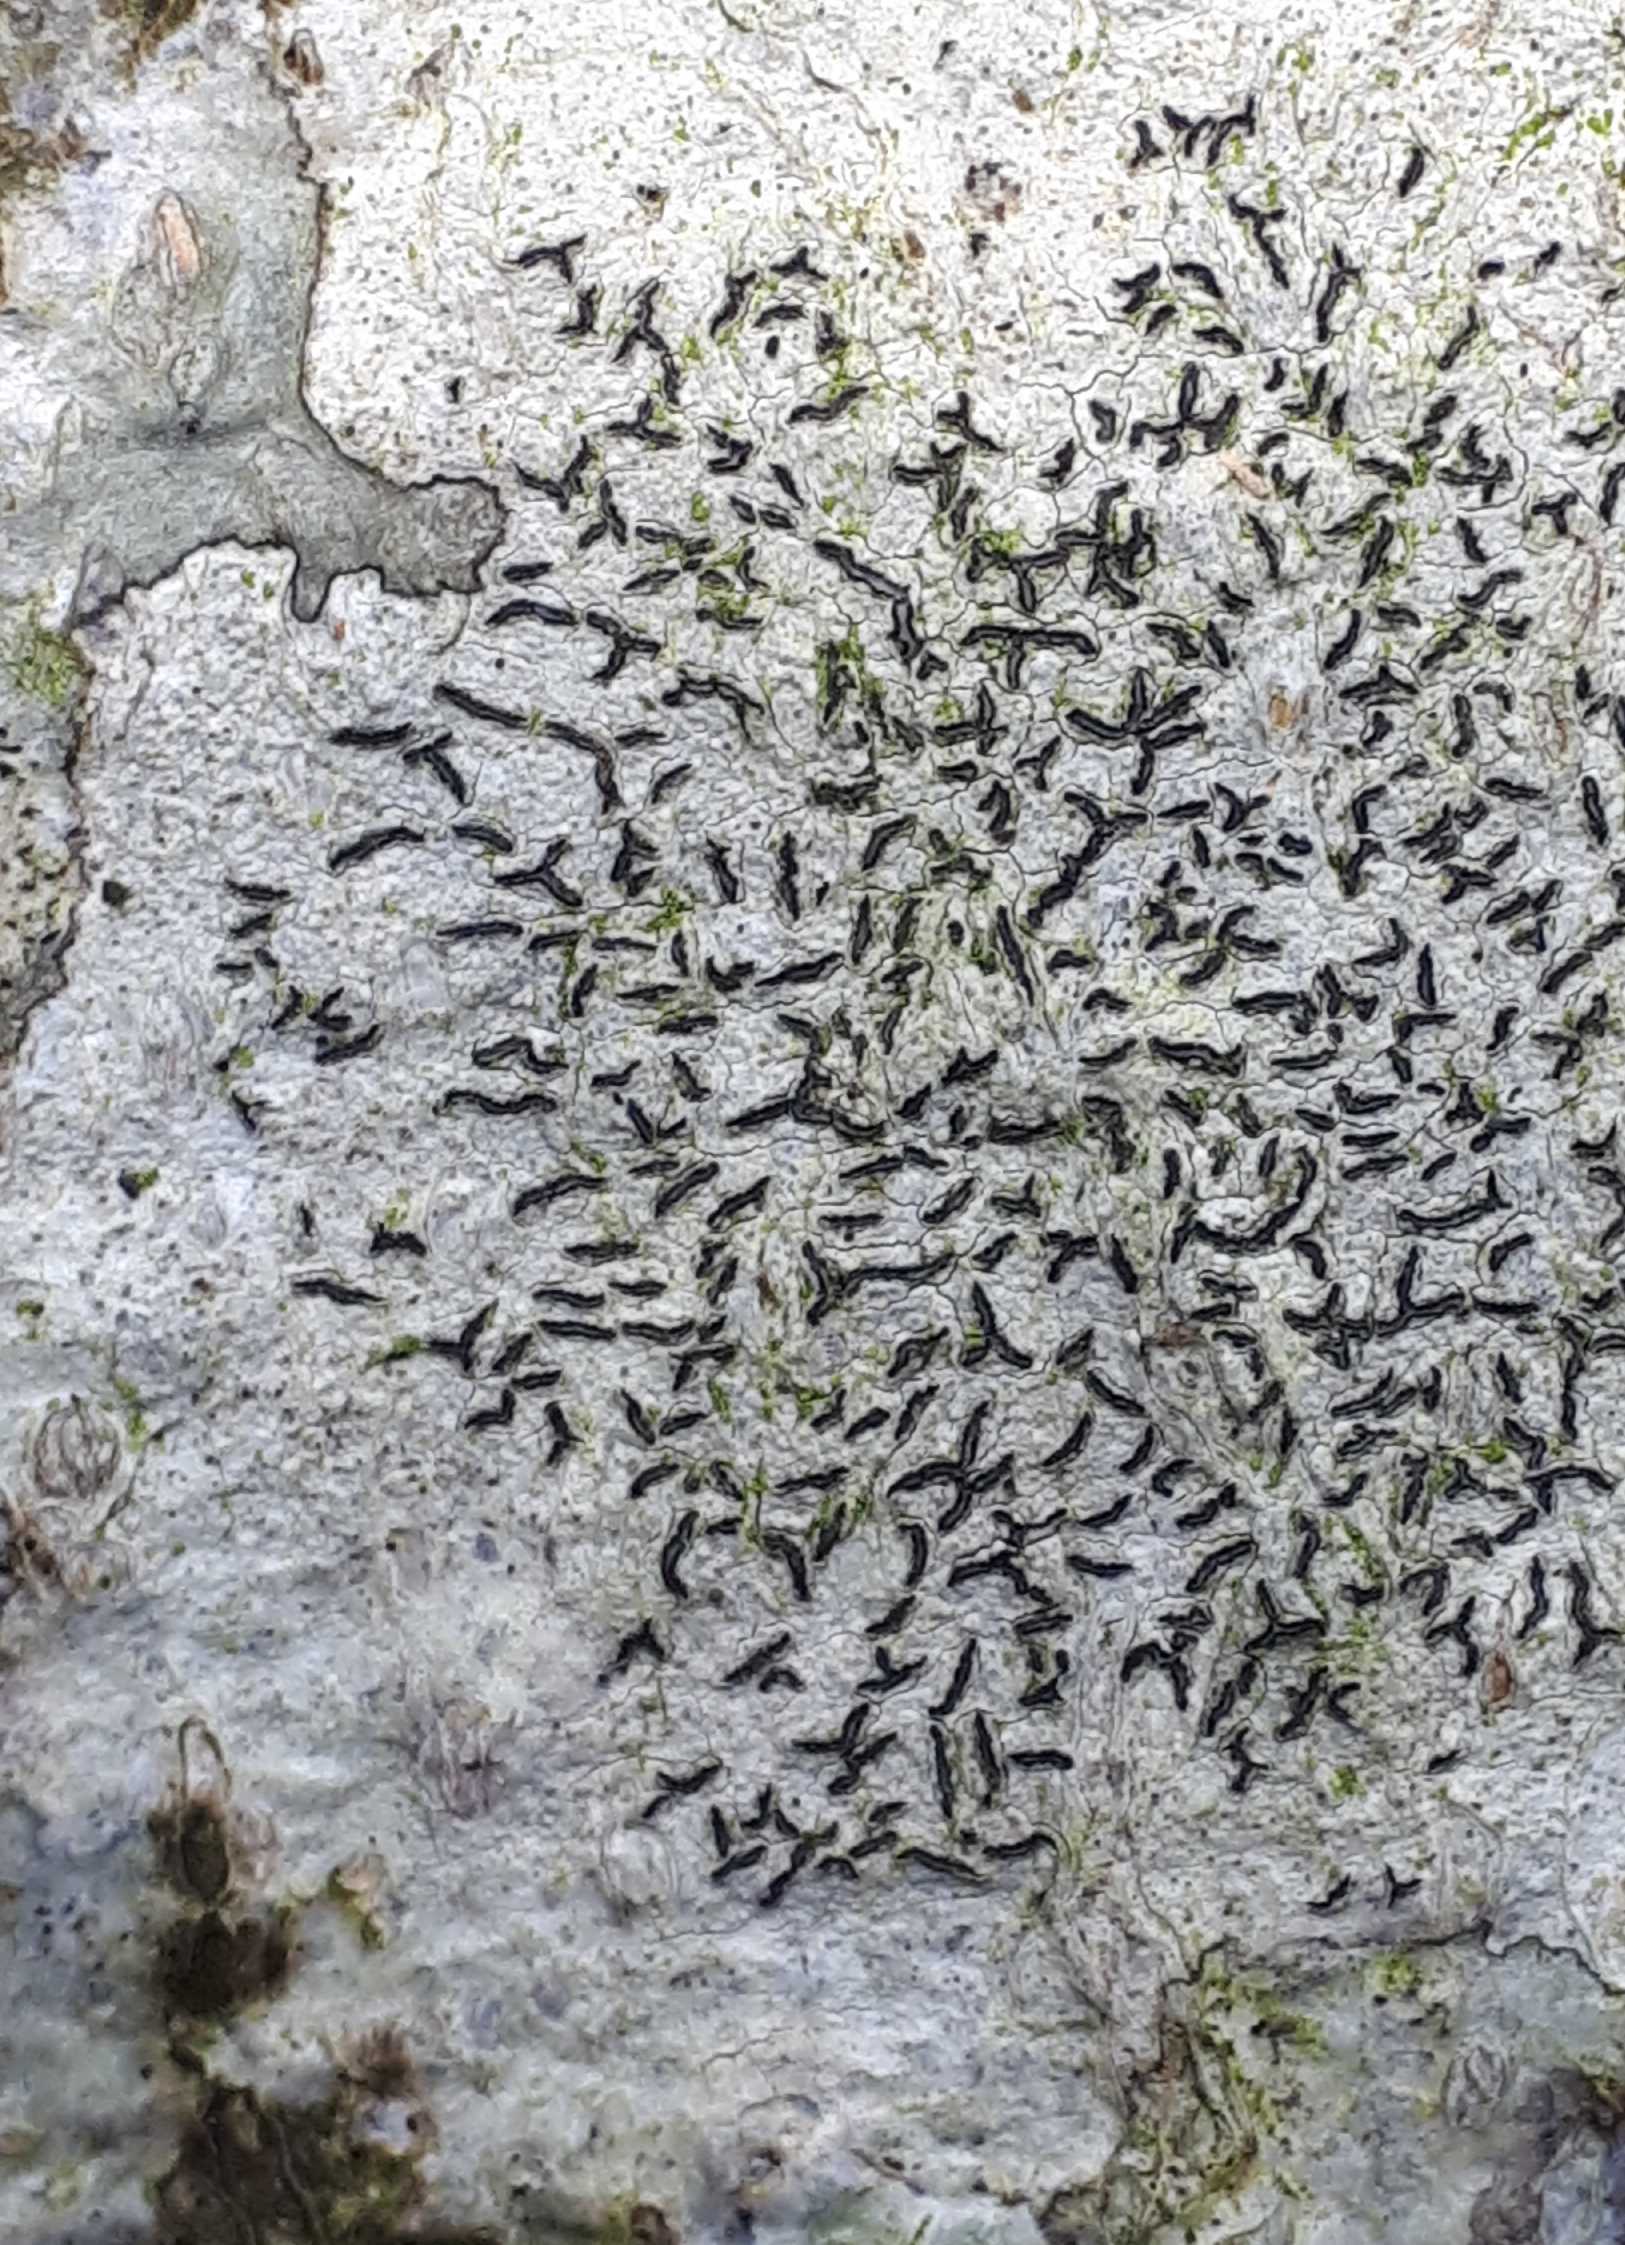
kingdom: Fungi
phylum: Ascomycota
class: Lecanoromycetes
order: Ostropales
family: Graphidaceae
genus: Graphis
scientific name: Graphis scripta
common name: almindelig skriftlav
